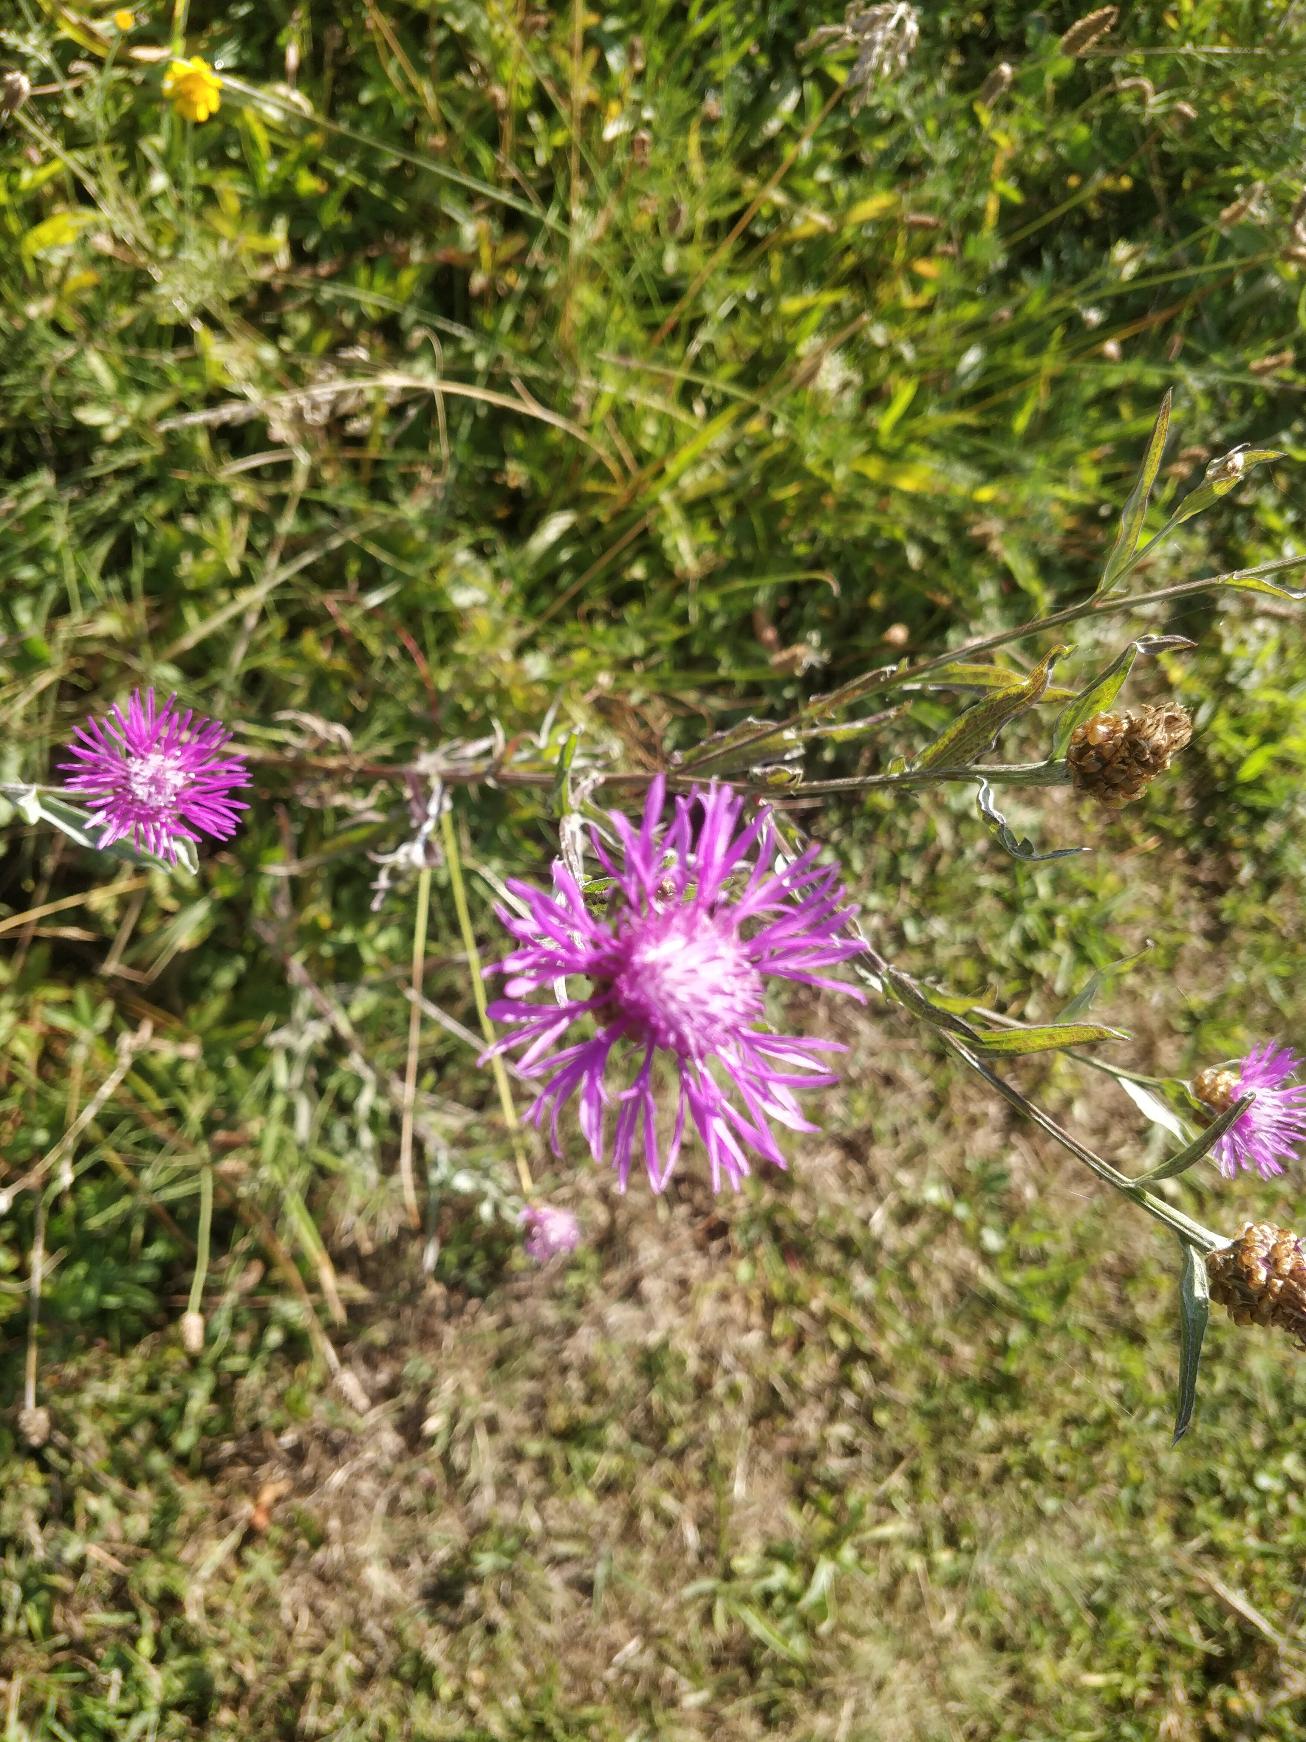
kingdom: Plantae
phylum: Tracheophyta
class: Magnoliopsida
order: Asterales
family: Asteraceae
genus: Centaurea
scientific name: Centaurea jacea
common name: Almindelig knopurt
